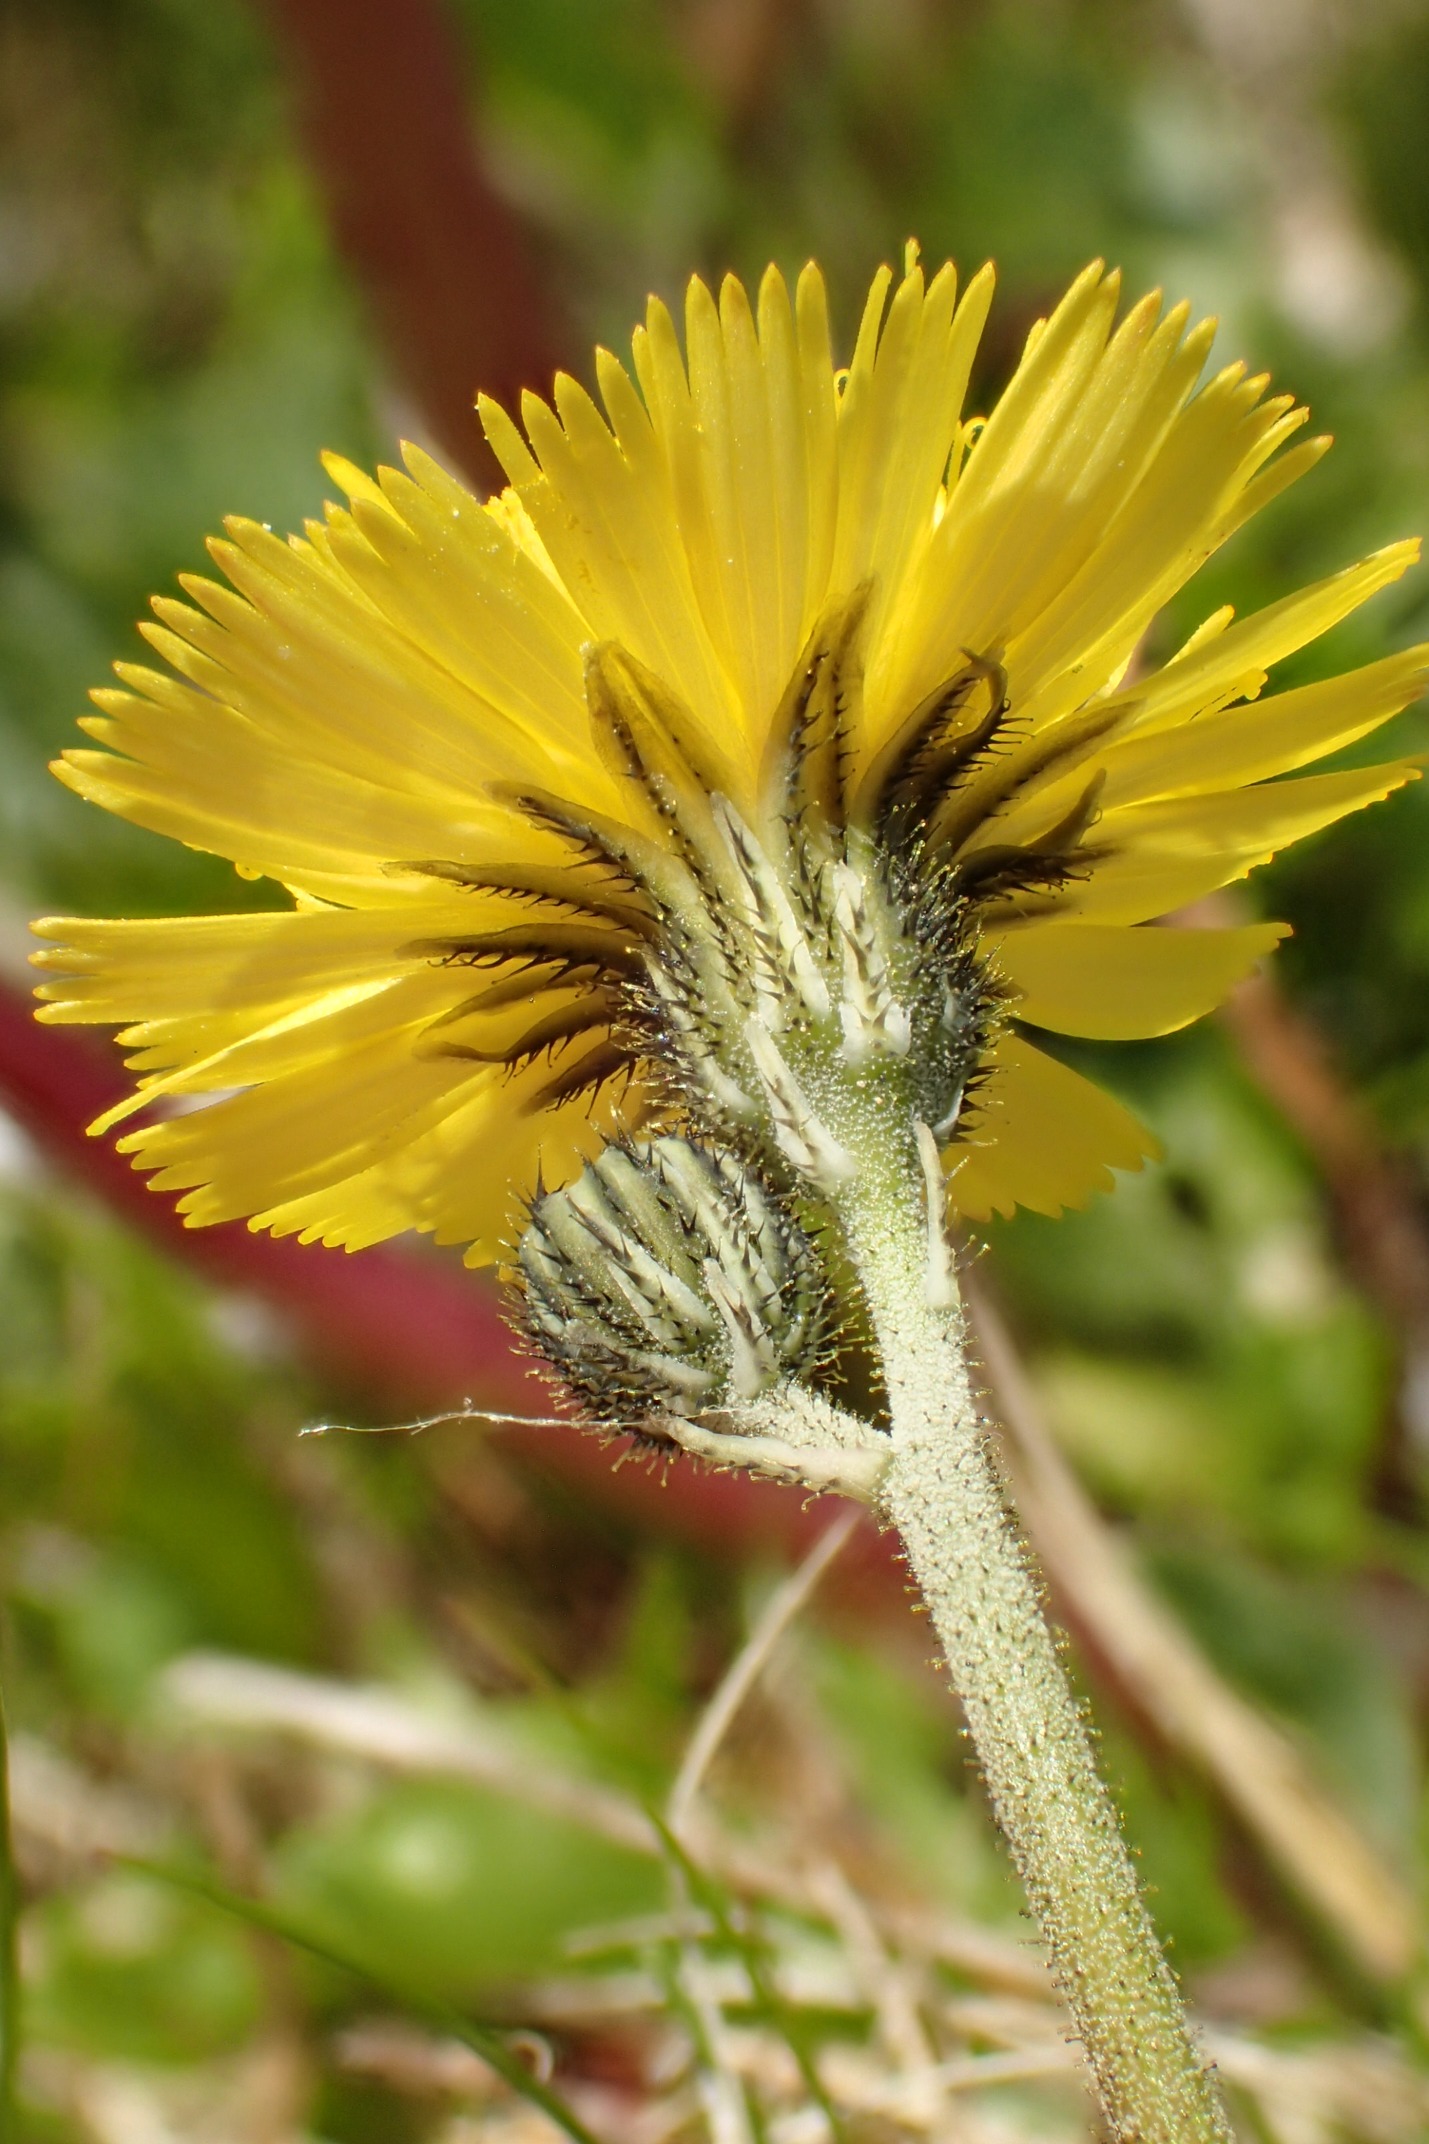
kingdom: Plantae
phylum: Tracheophyta
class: Magnoliopsida
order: Asterales
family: Asteraceae
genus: Pilosella
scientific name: Pilosella lactucella
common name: Lancetbladet høgeurt
